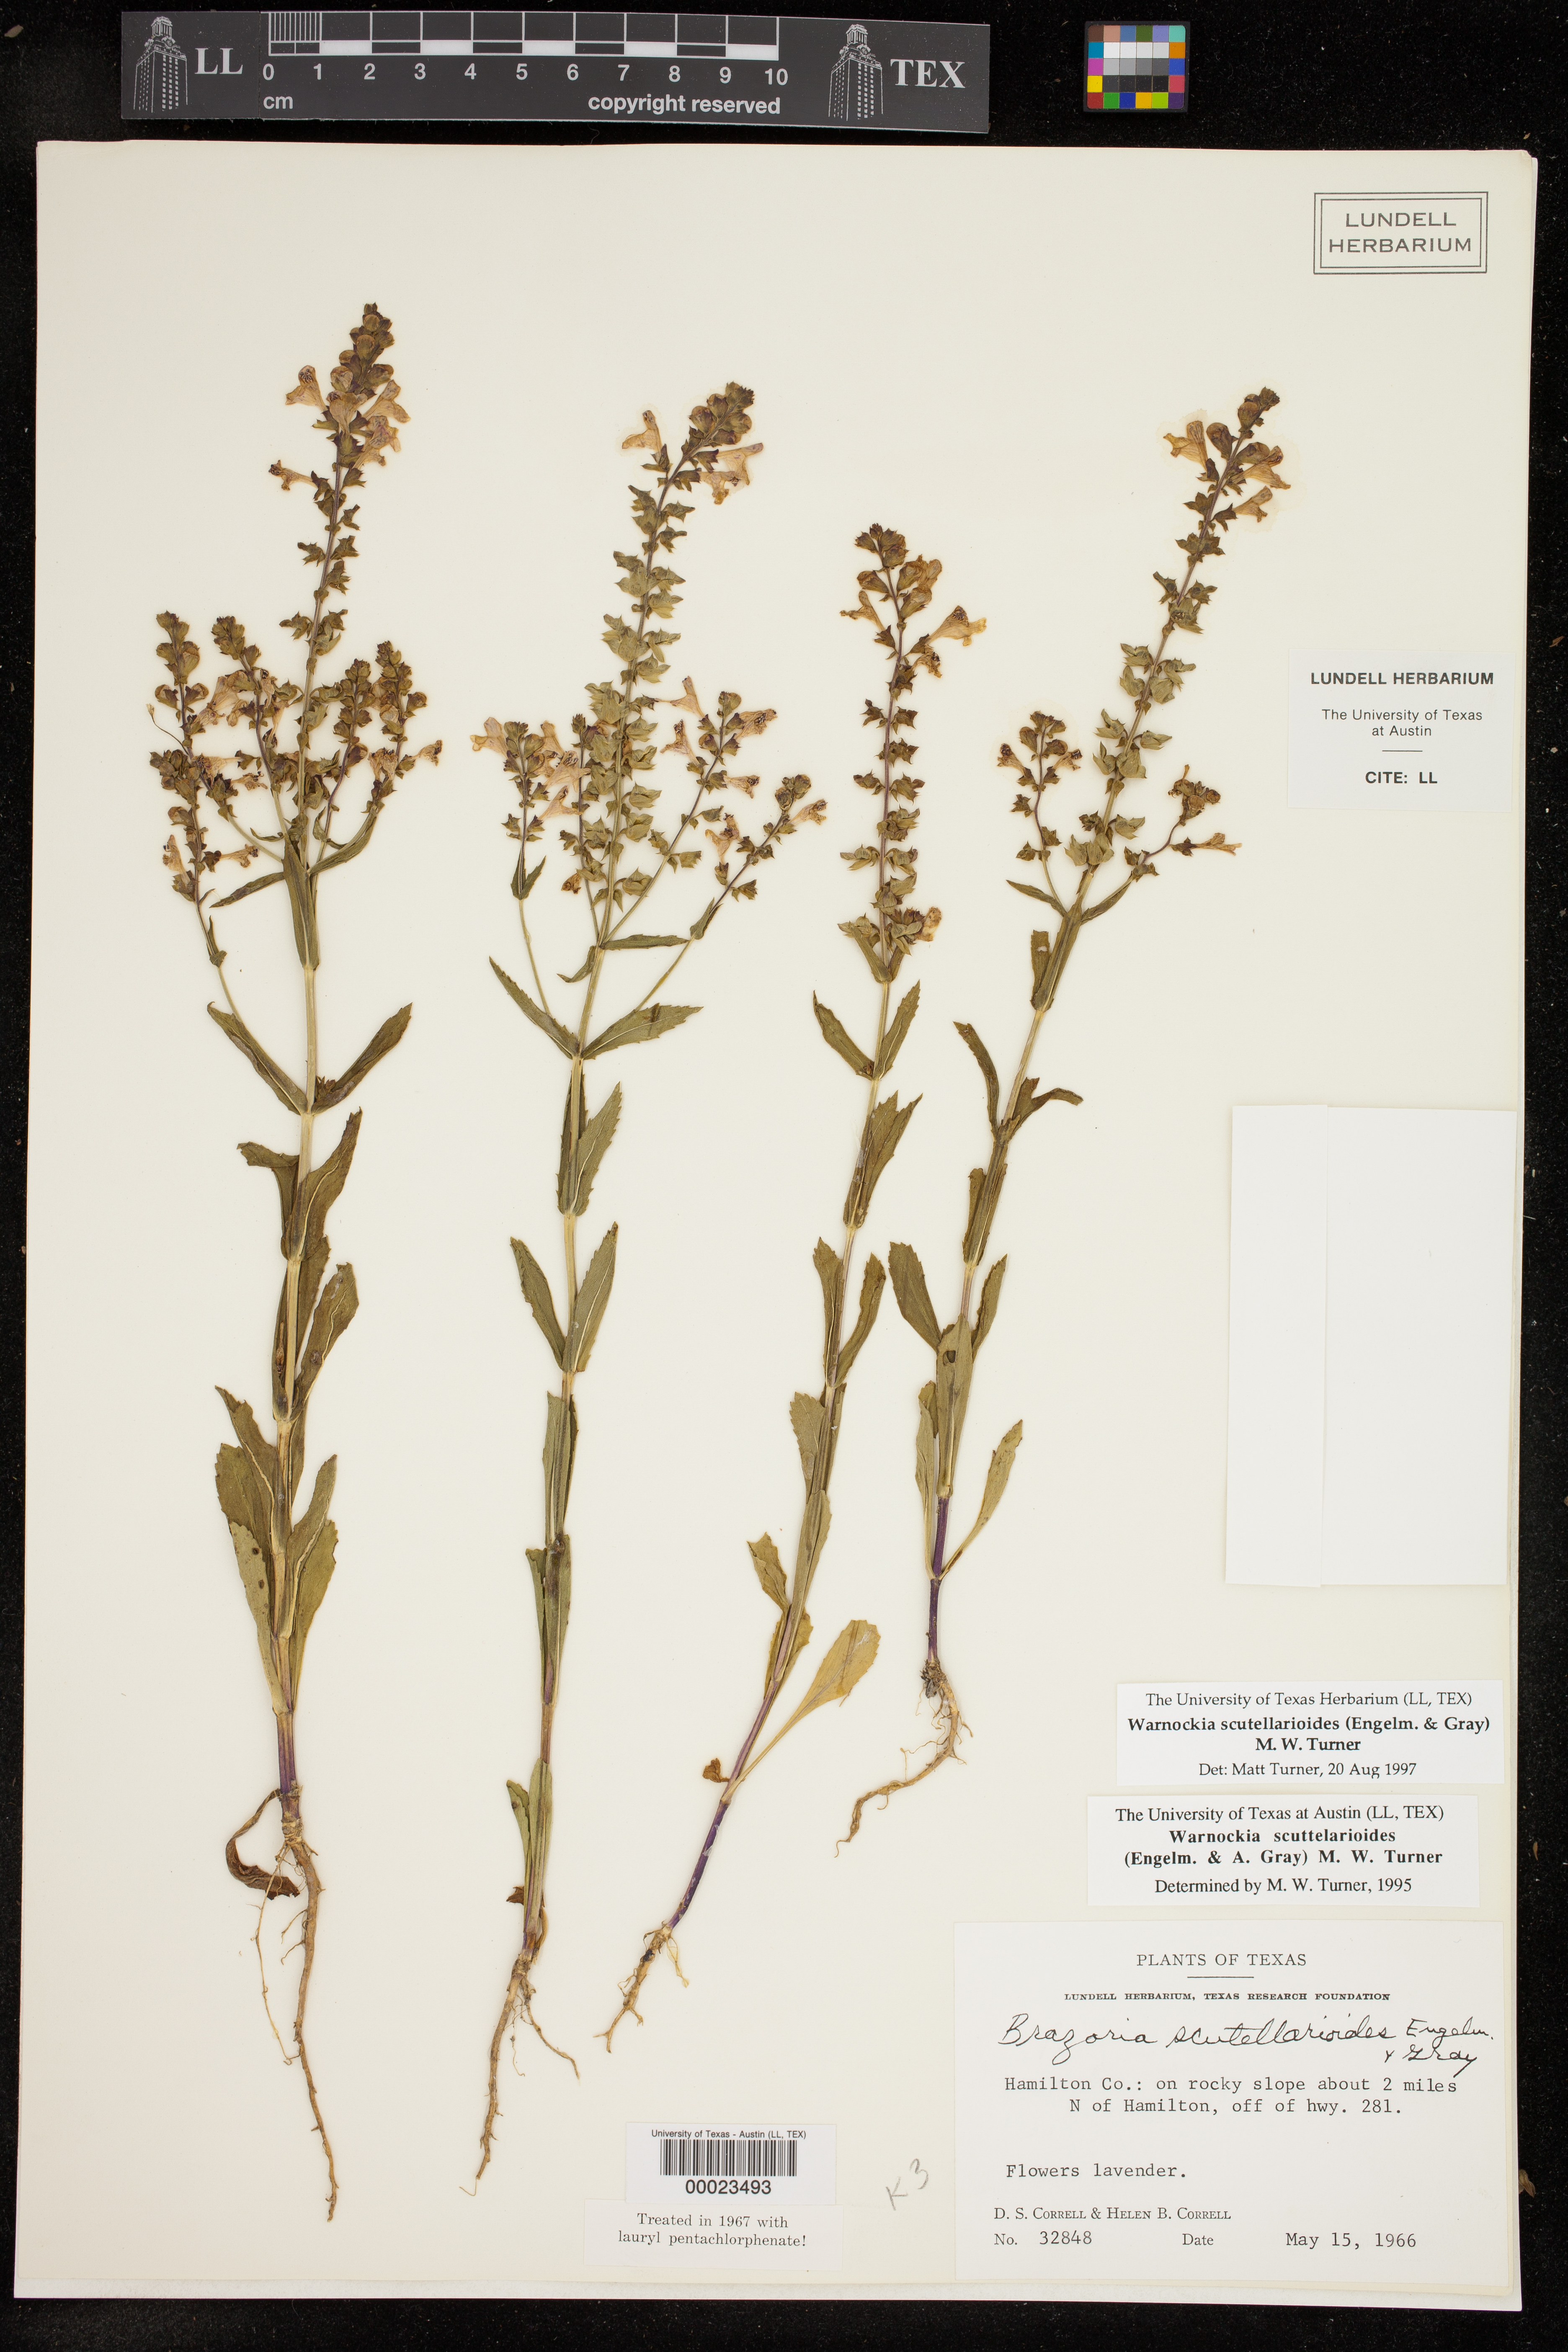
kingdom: Plantae
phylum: Tracheophyta
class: Magnoliopsida
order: Lamiales
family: Lamiaceae
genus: Warnockia
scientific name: Warnockia scutellarioides
